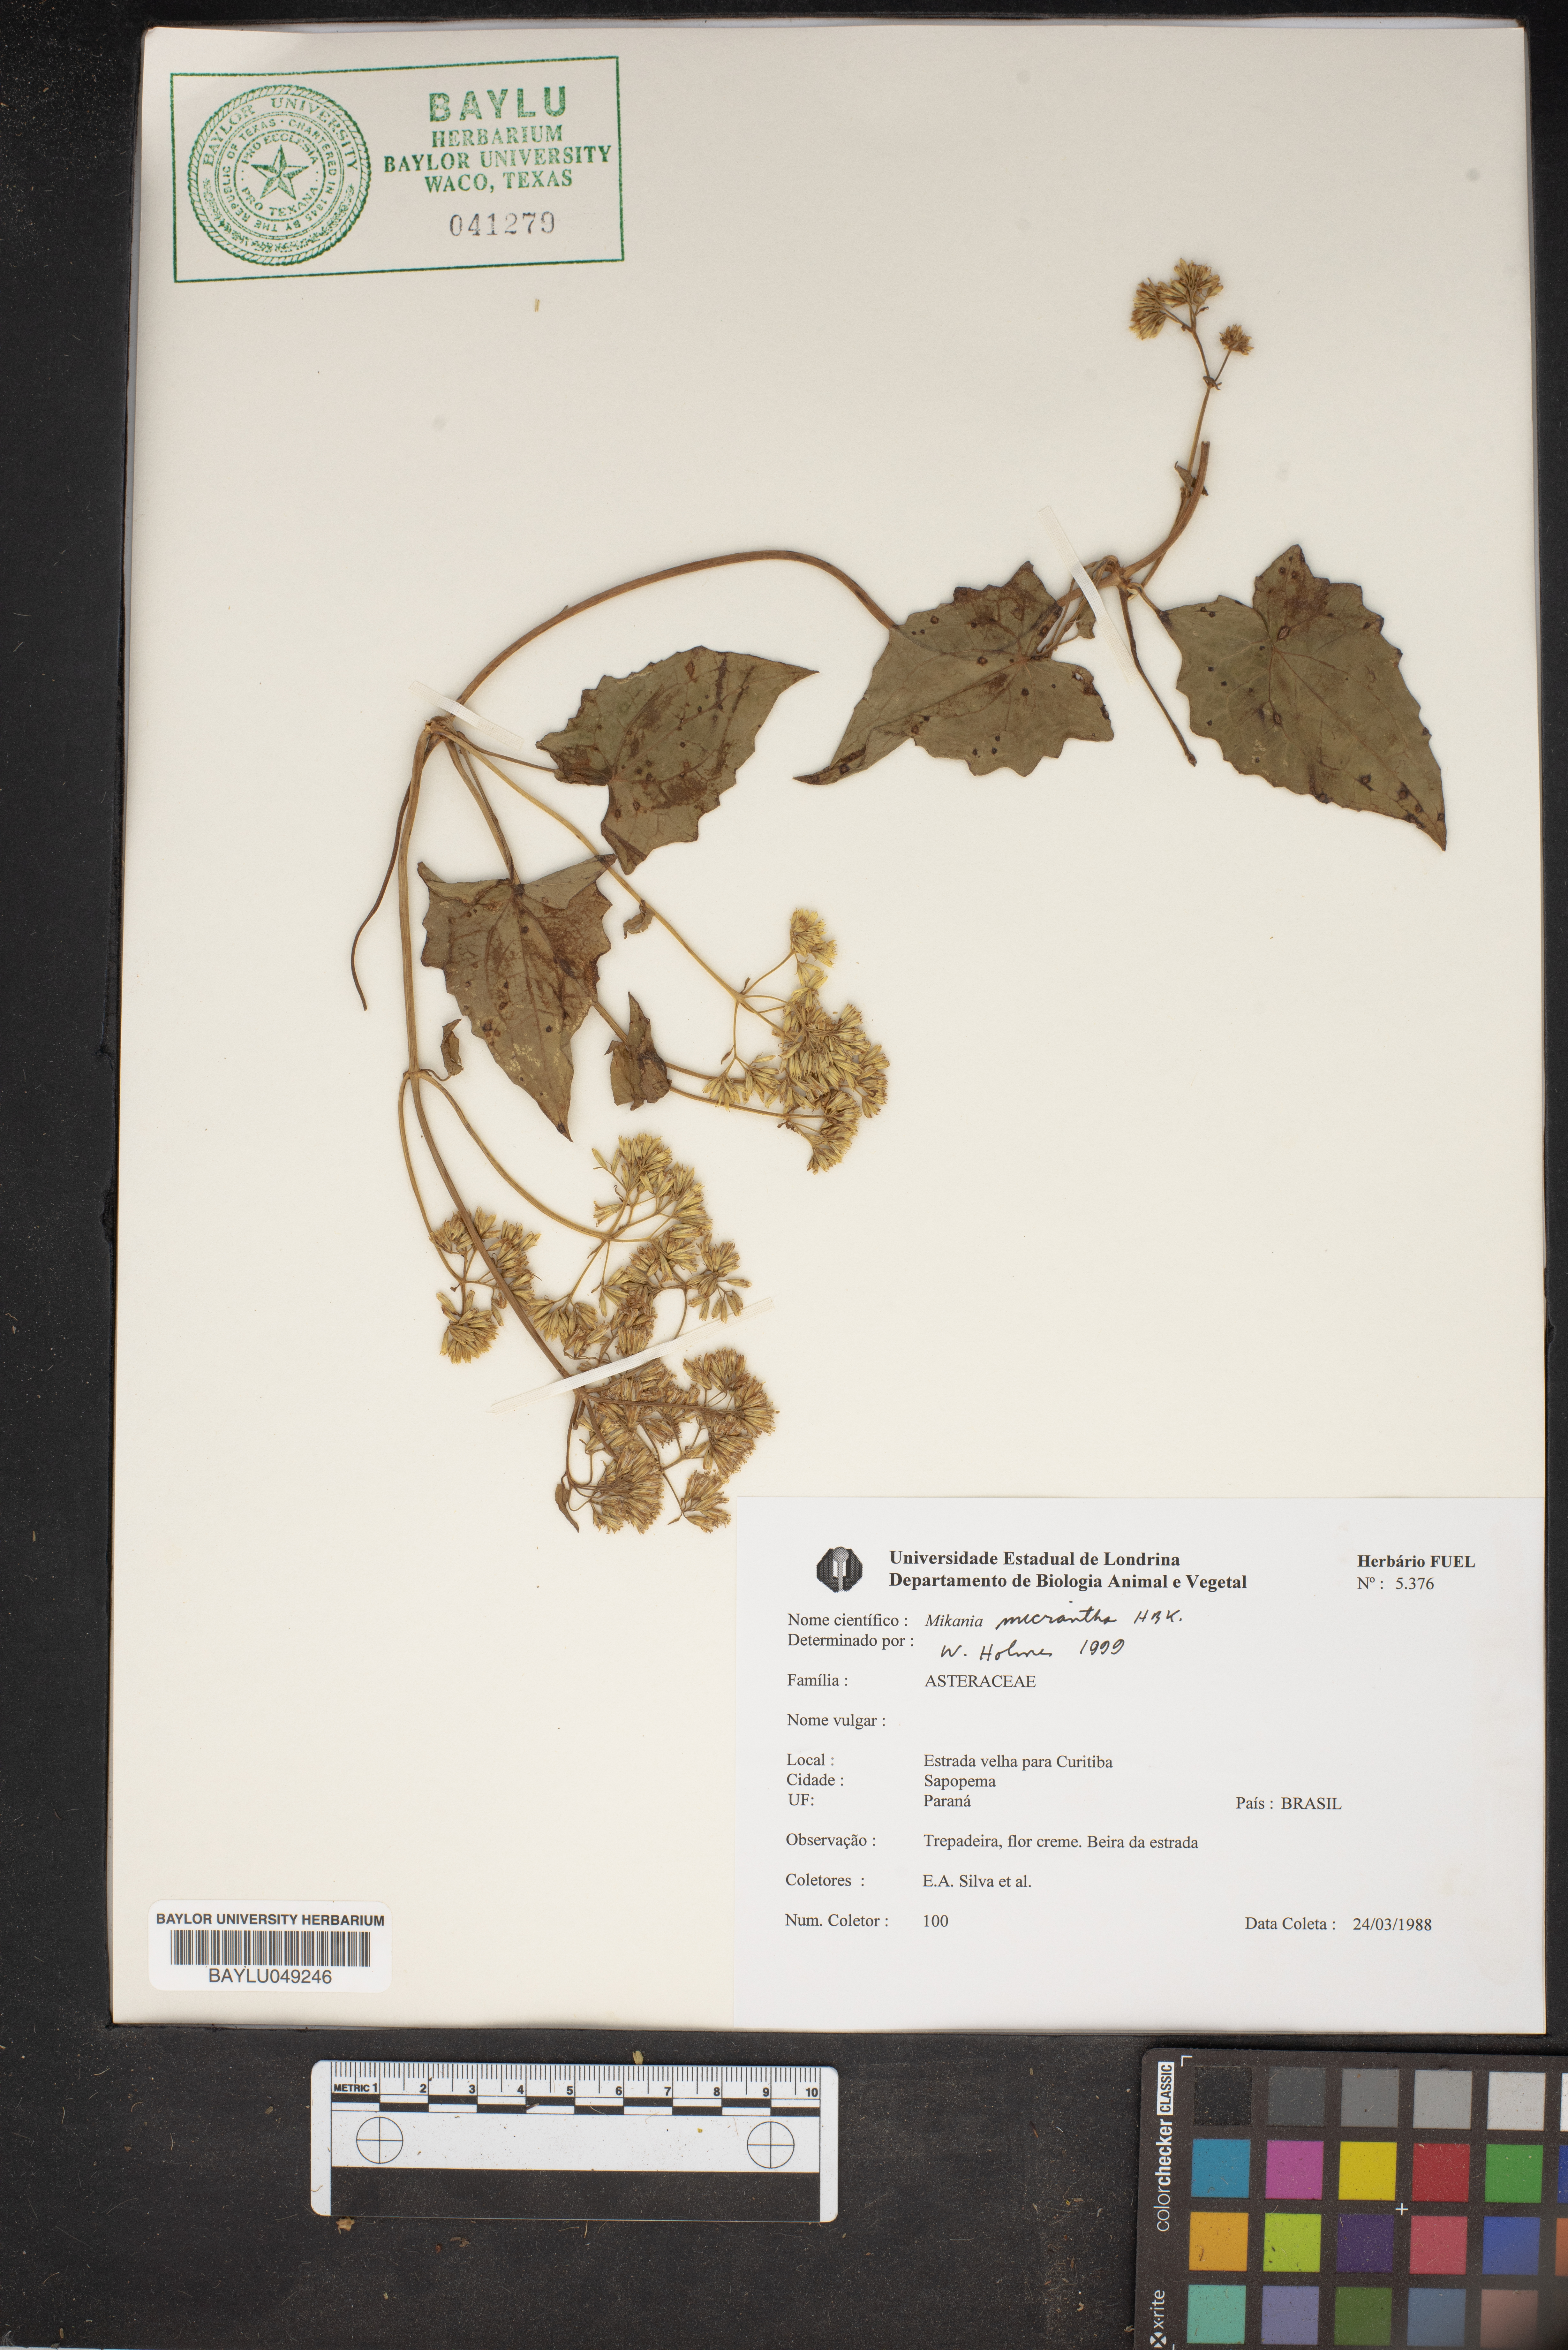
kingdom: Plantae
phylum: Tracheophyta
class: Magnoliopsida
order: Asterales
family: Asteraceae
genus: Mikania
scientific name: Mikania micrantha
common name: Mile-a-minute
